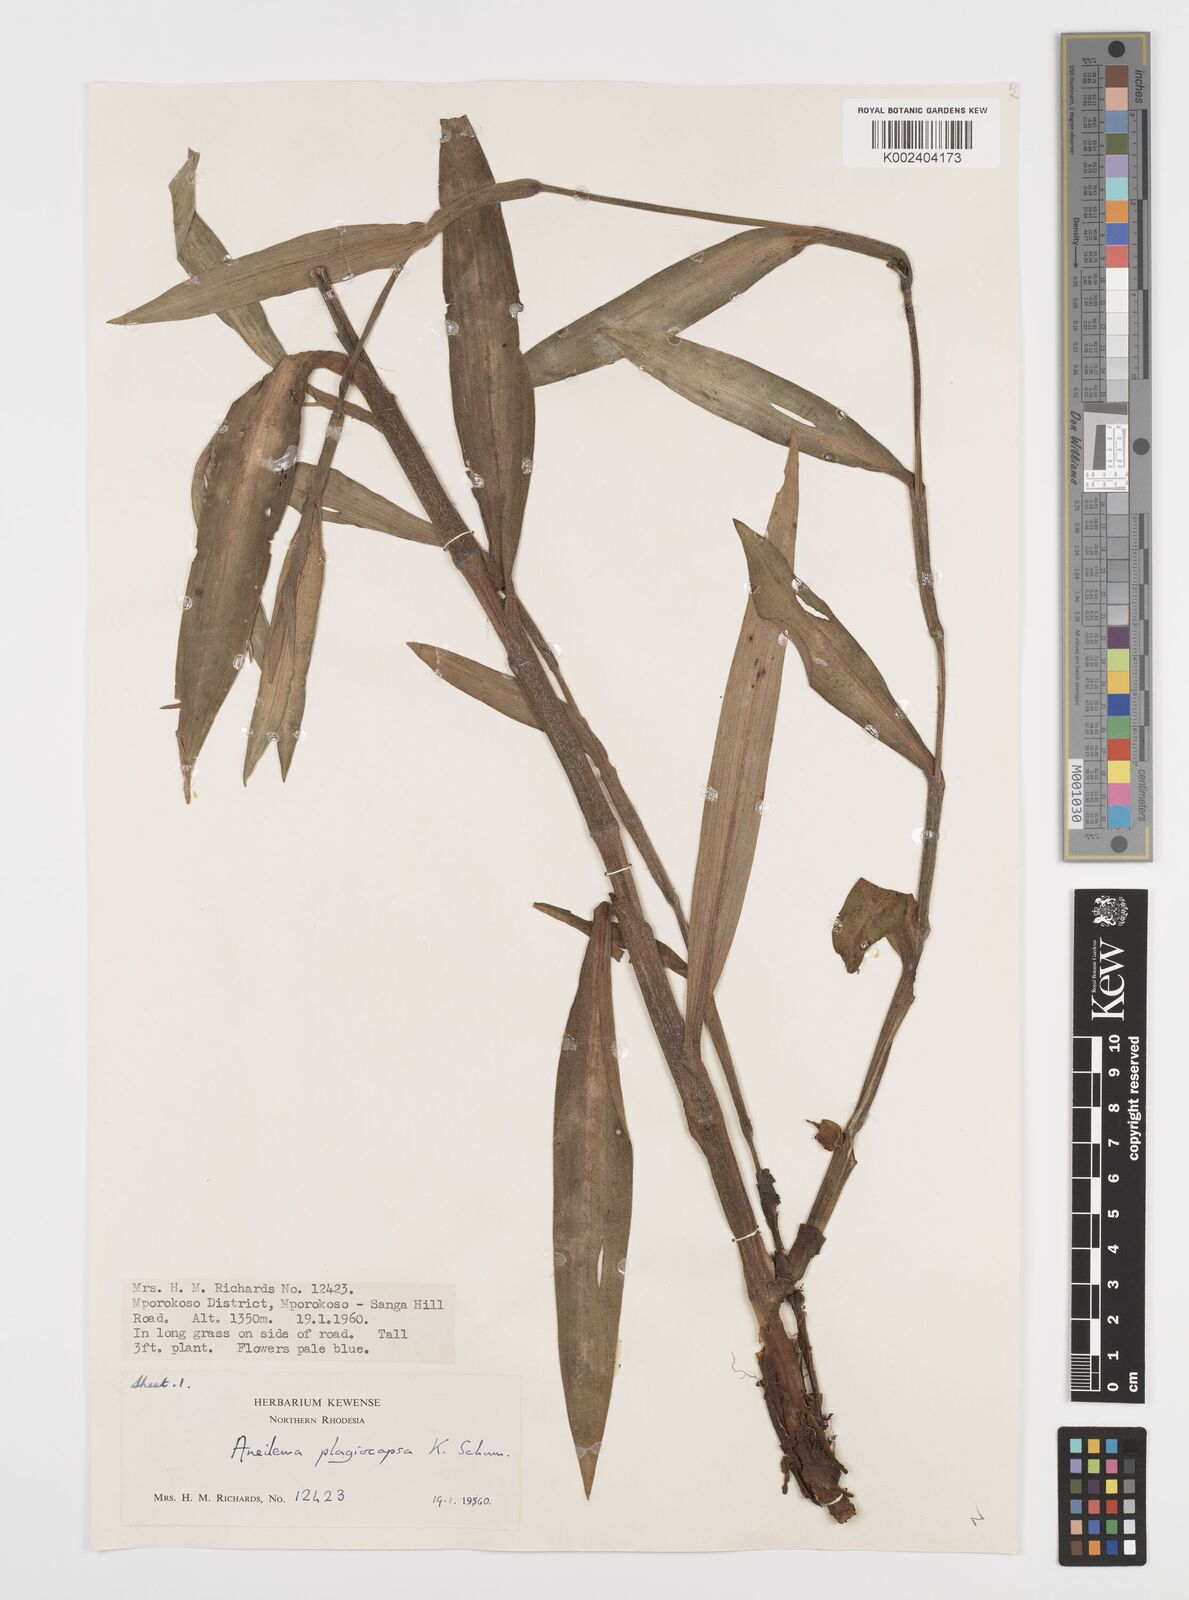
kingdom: Plantae
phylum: Tracheophyta
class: Liliopsida
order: Commelinales
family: Commelinaceae
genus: Aneilema
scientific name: Aneilema plagiocapsa
